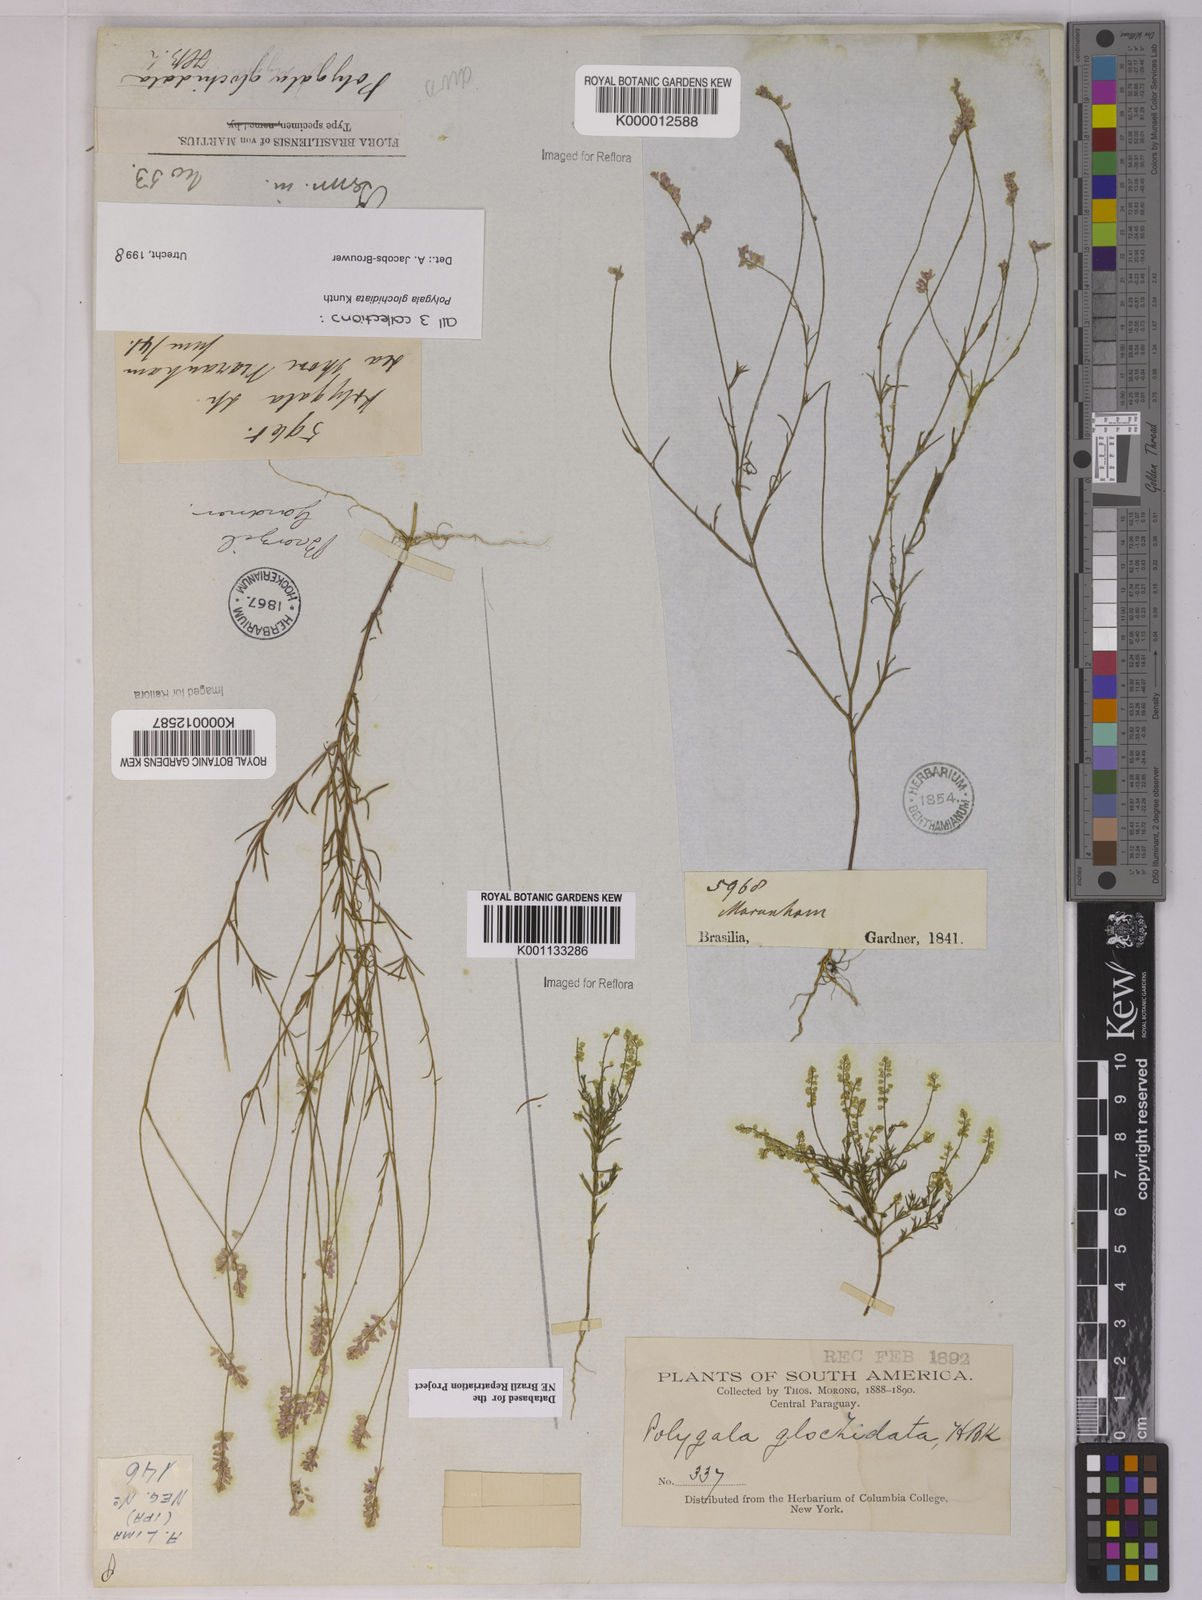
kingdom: Plantae
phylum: Tracheophyta
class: Magnoliopsida
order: Fabales
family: Polygalaceae
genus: Polygala
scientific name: Polygala glochidiata
